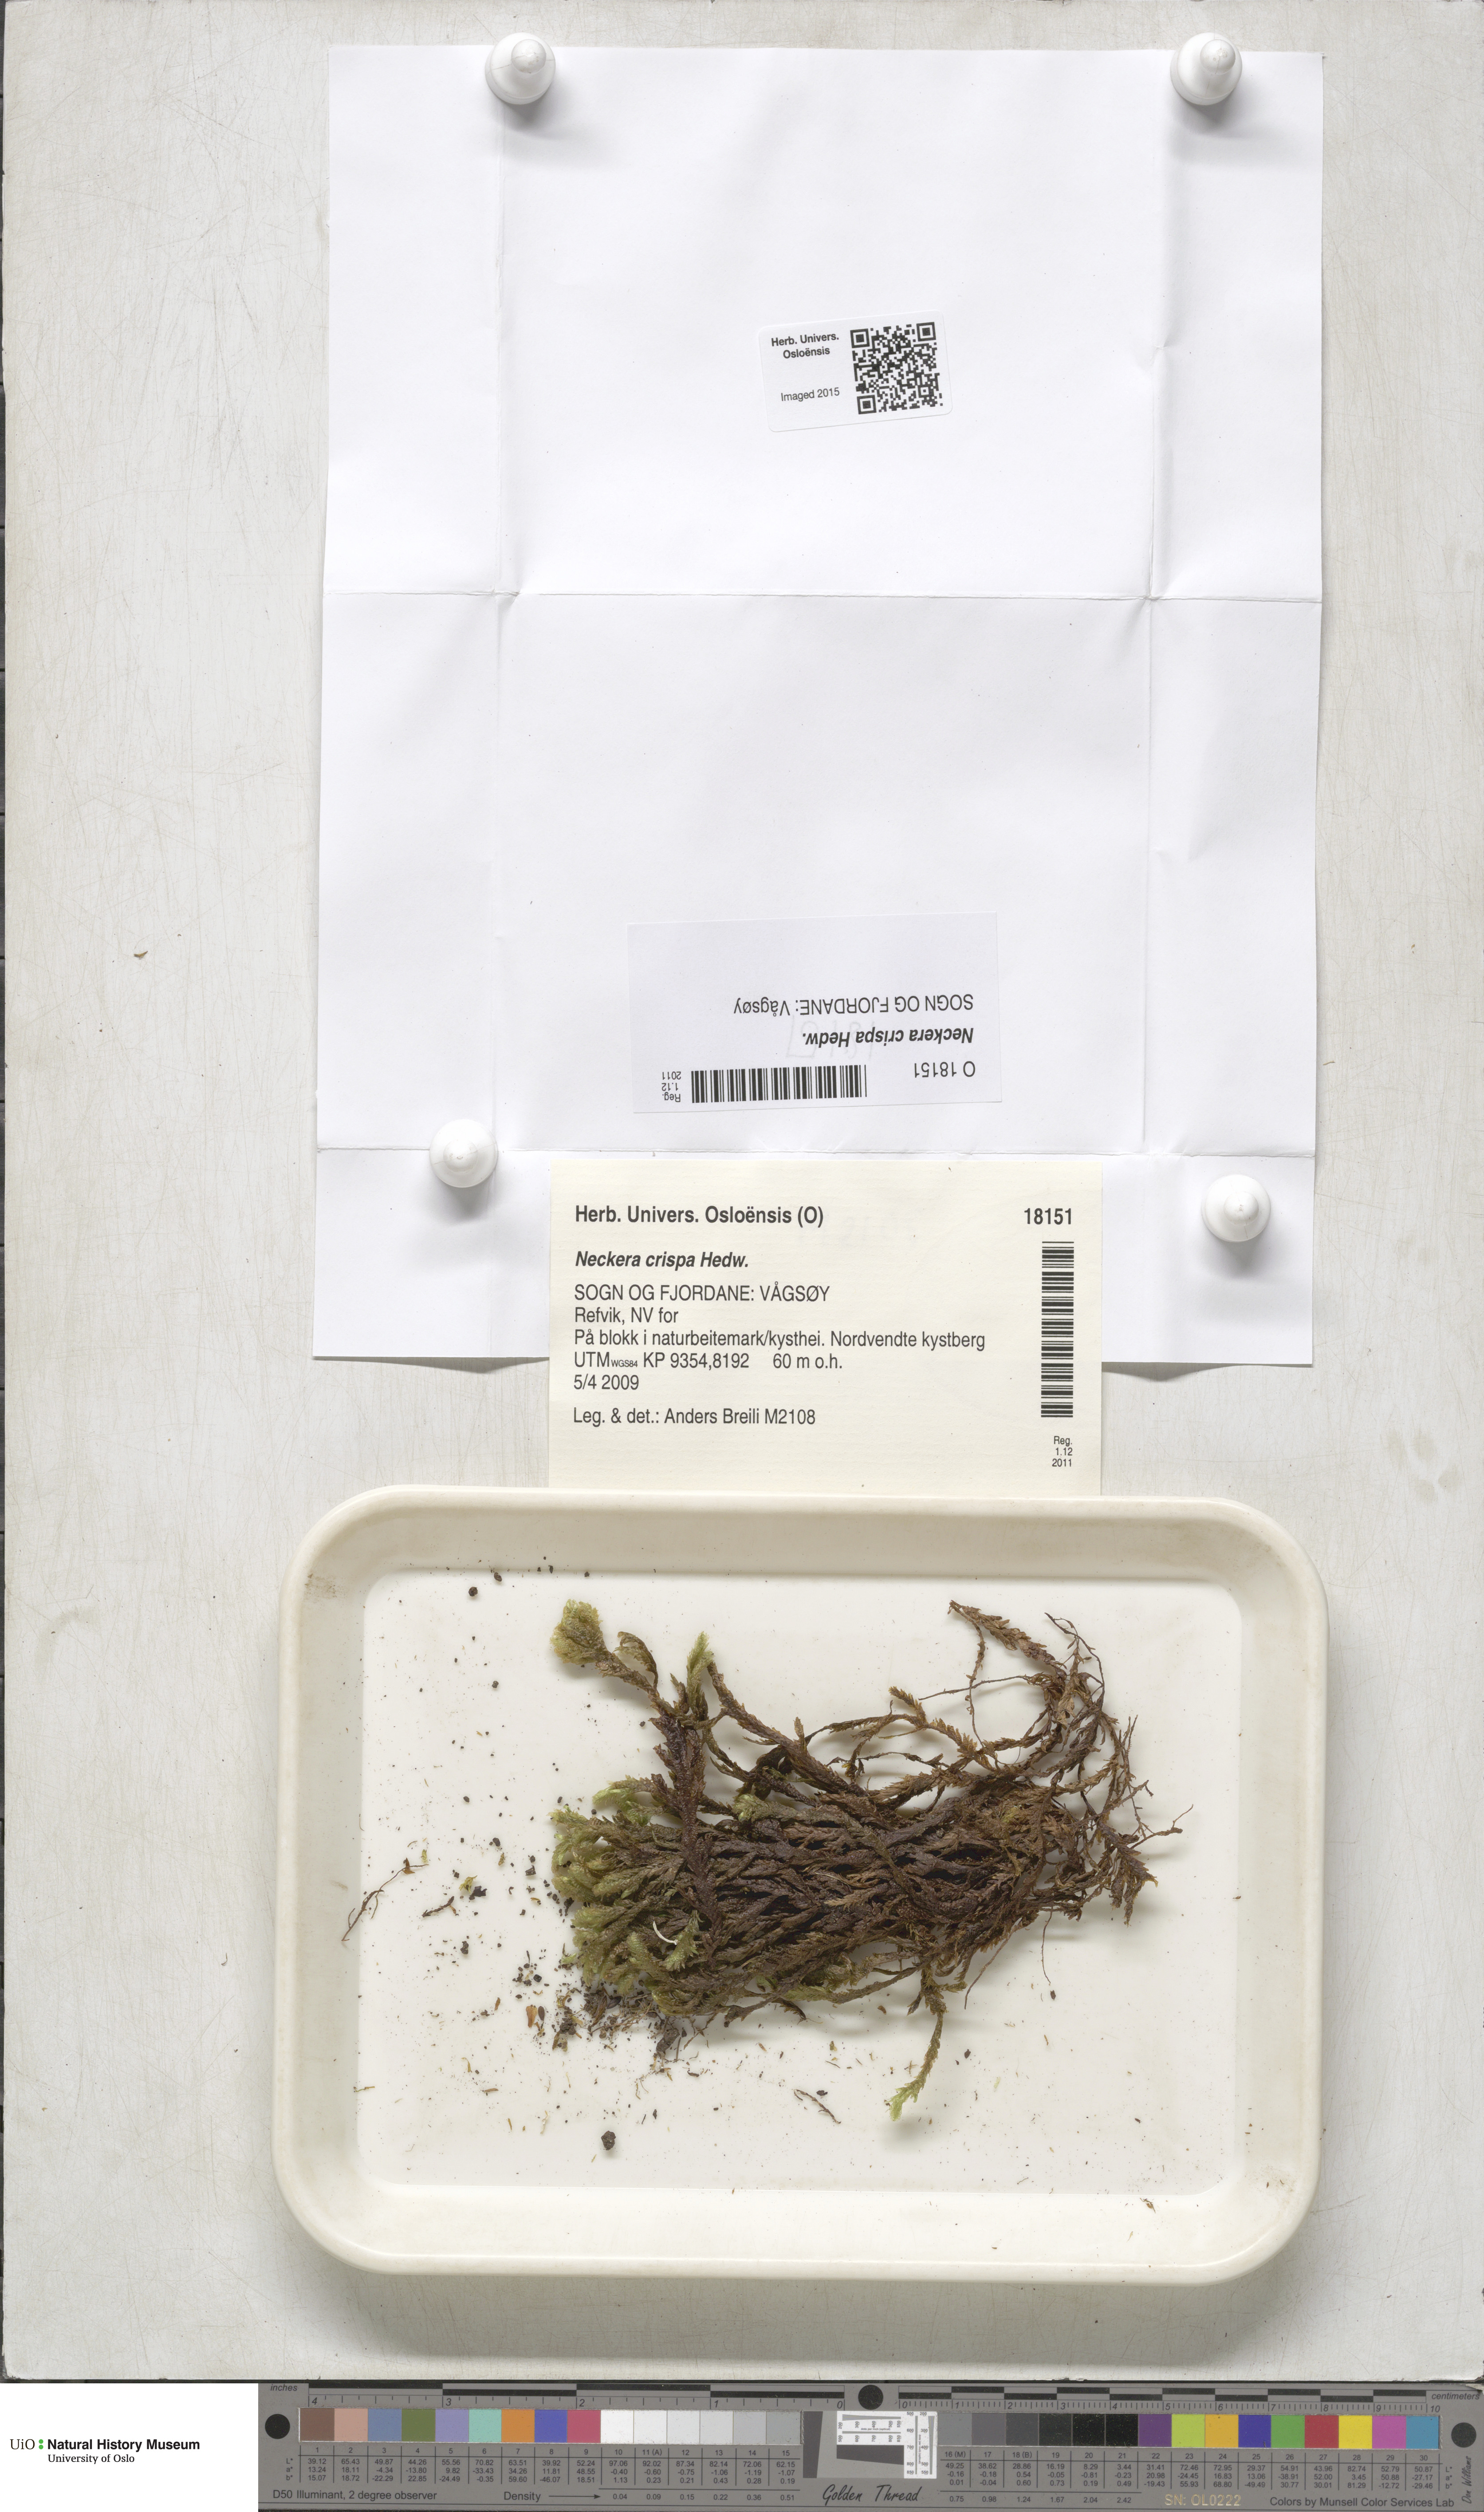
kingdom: Plantae
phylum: Bryophyta
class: Bryopsida
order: Hypnales
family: Neckeraceae
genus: Exsertotheca
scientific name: Exsertotheca crispa
